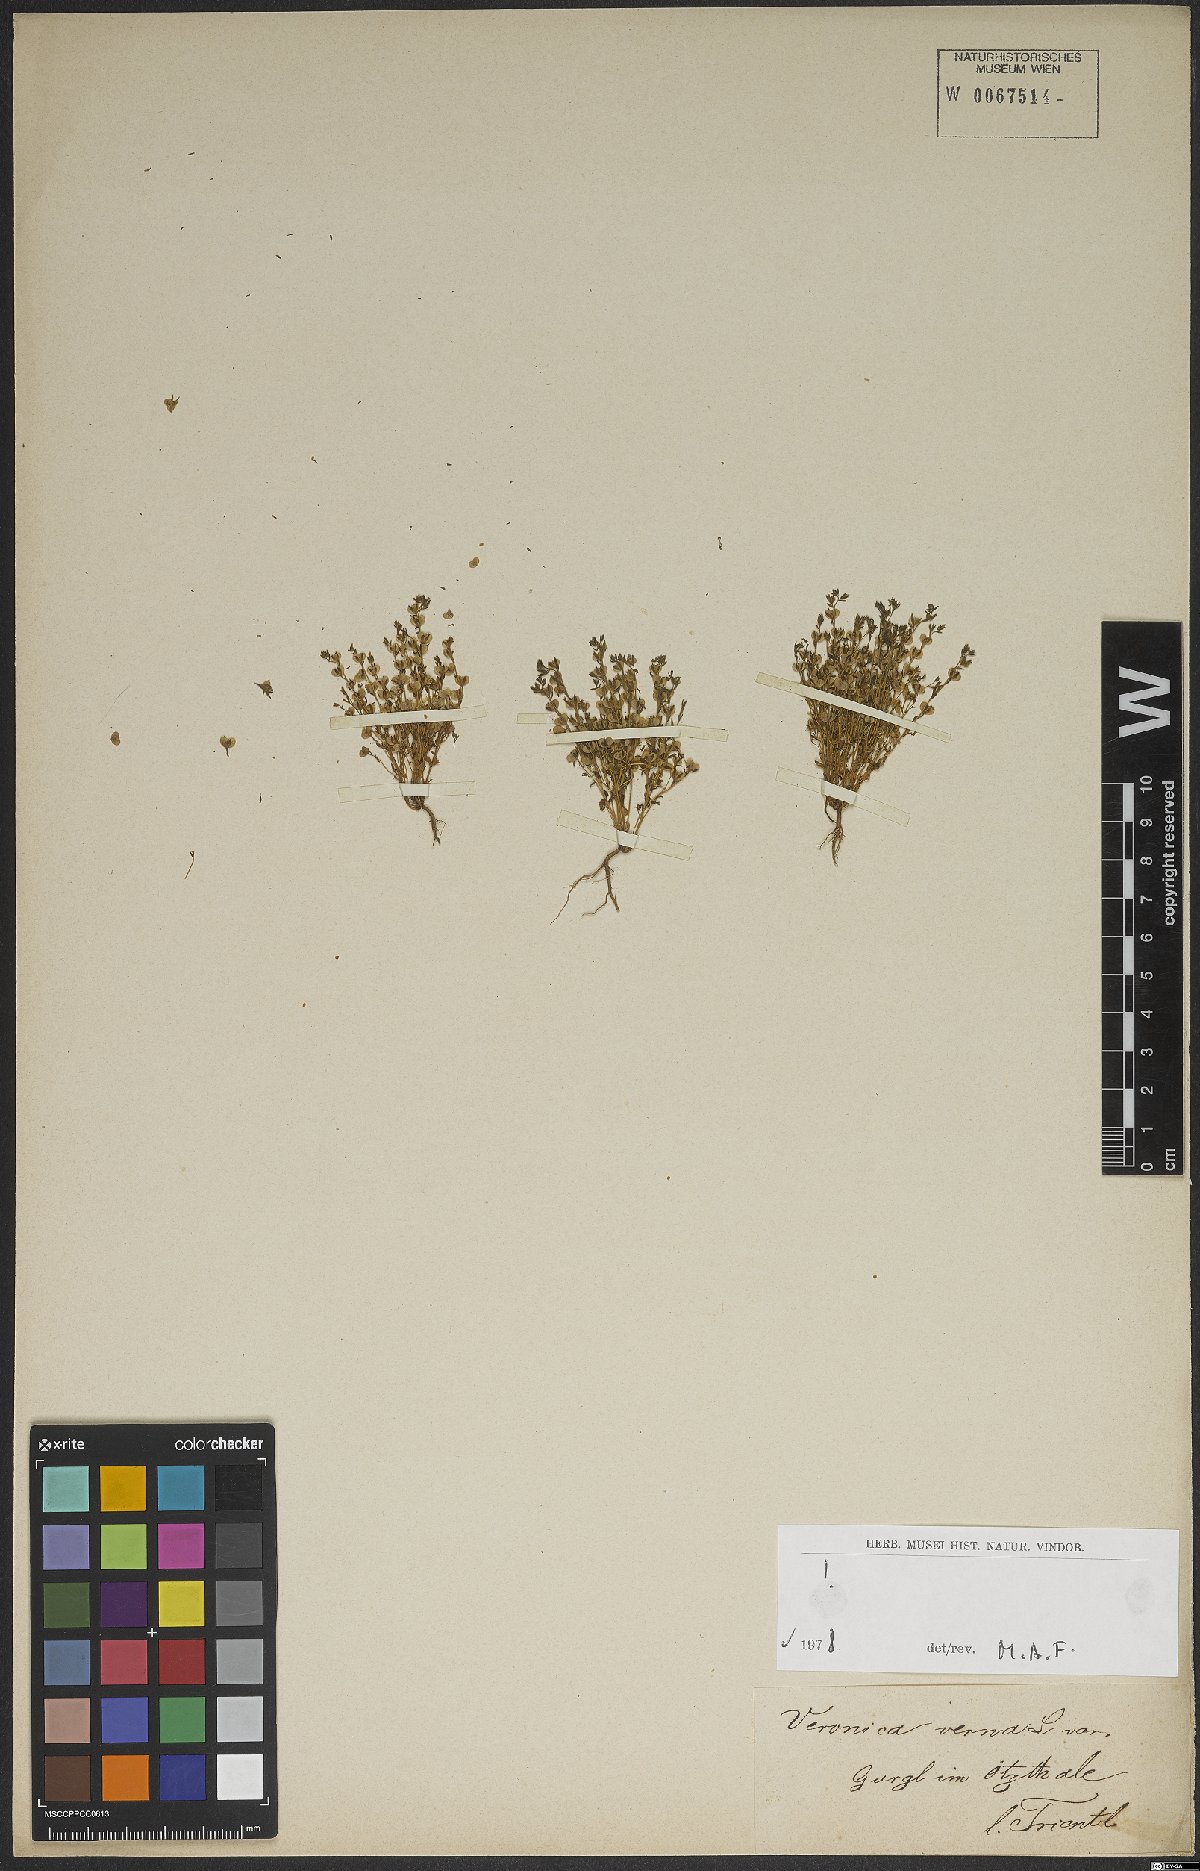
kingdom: Plantae
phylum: Tracheophyta
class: Magnoliopsida
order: Lamiales
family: Plantaginaceae
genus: Veronica
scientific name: Veronica verna
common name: Spring speedwell
